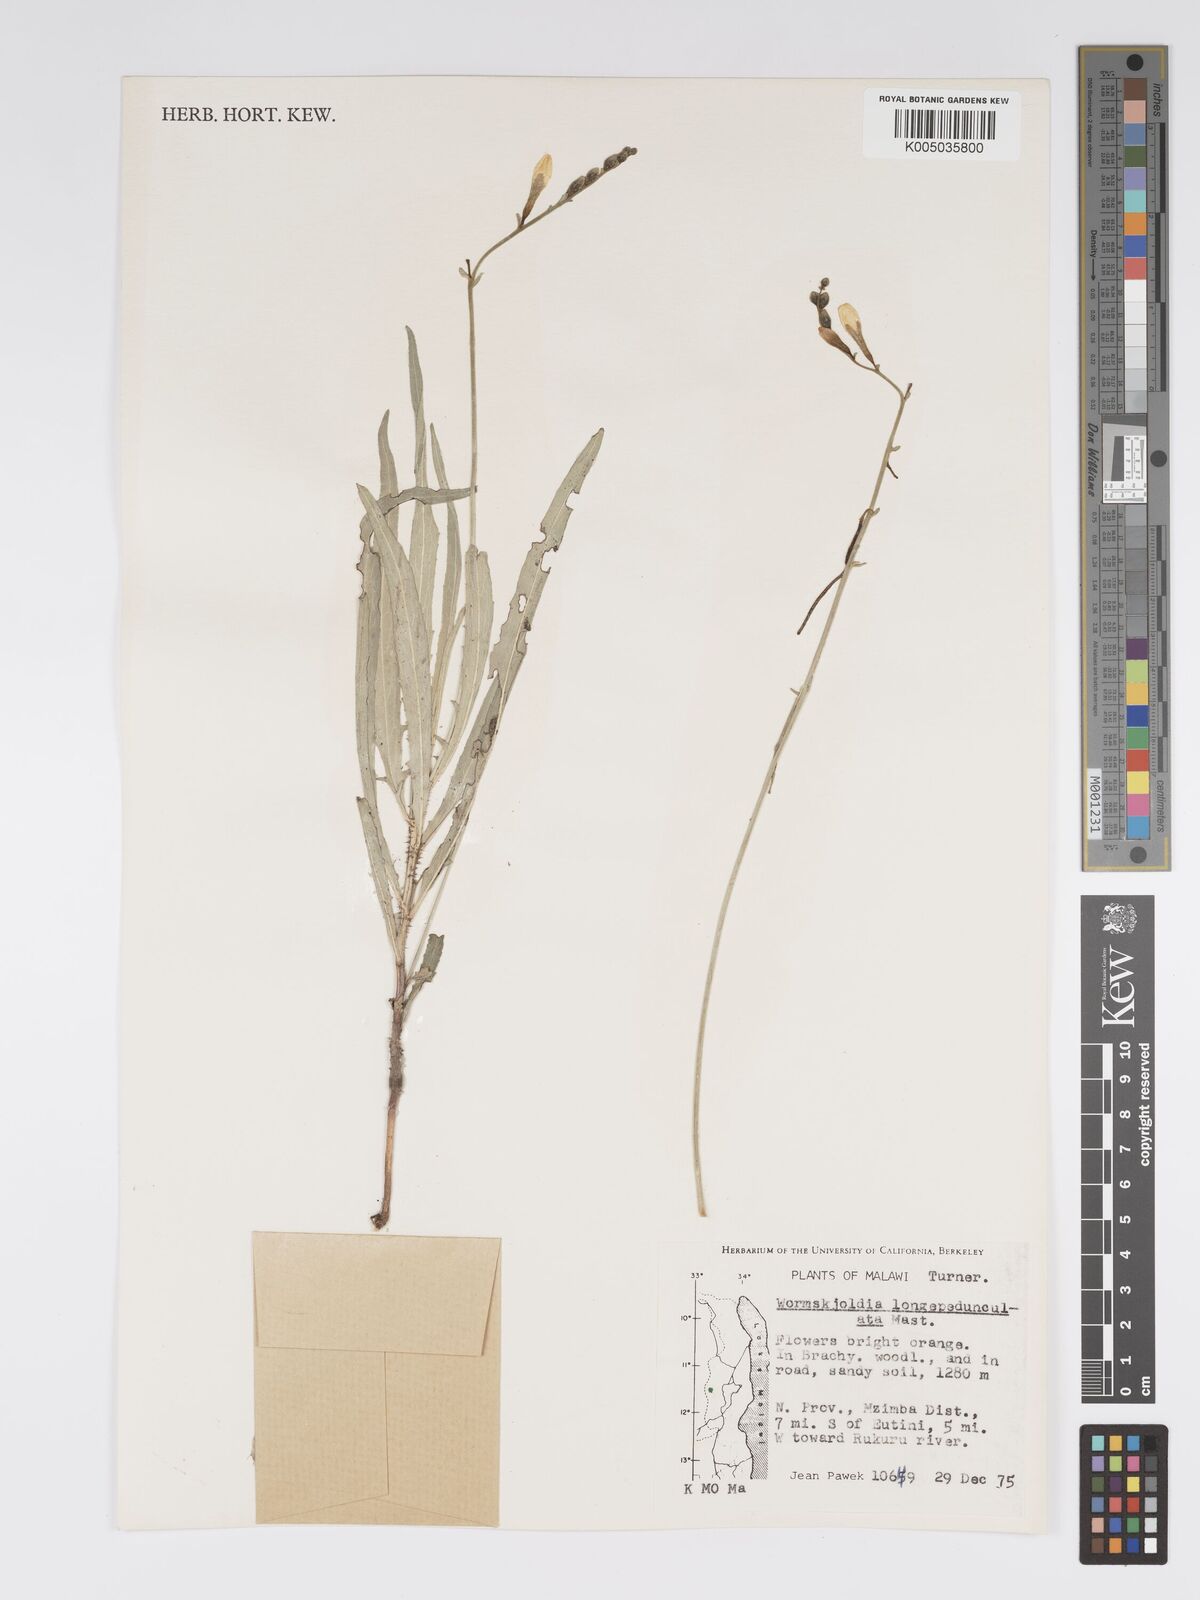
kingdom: Plantae
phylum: Tracheophyta
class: Magnoliopsida
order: Malpighiales
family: Turneraceae
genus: Tricliceras
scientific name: Tricliceras longepedunculatum
